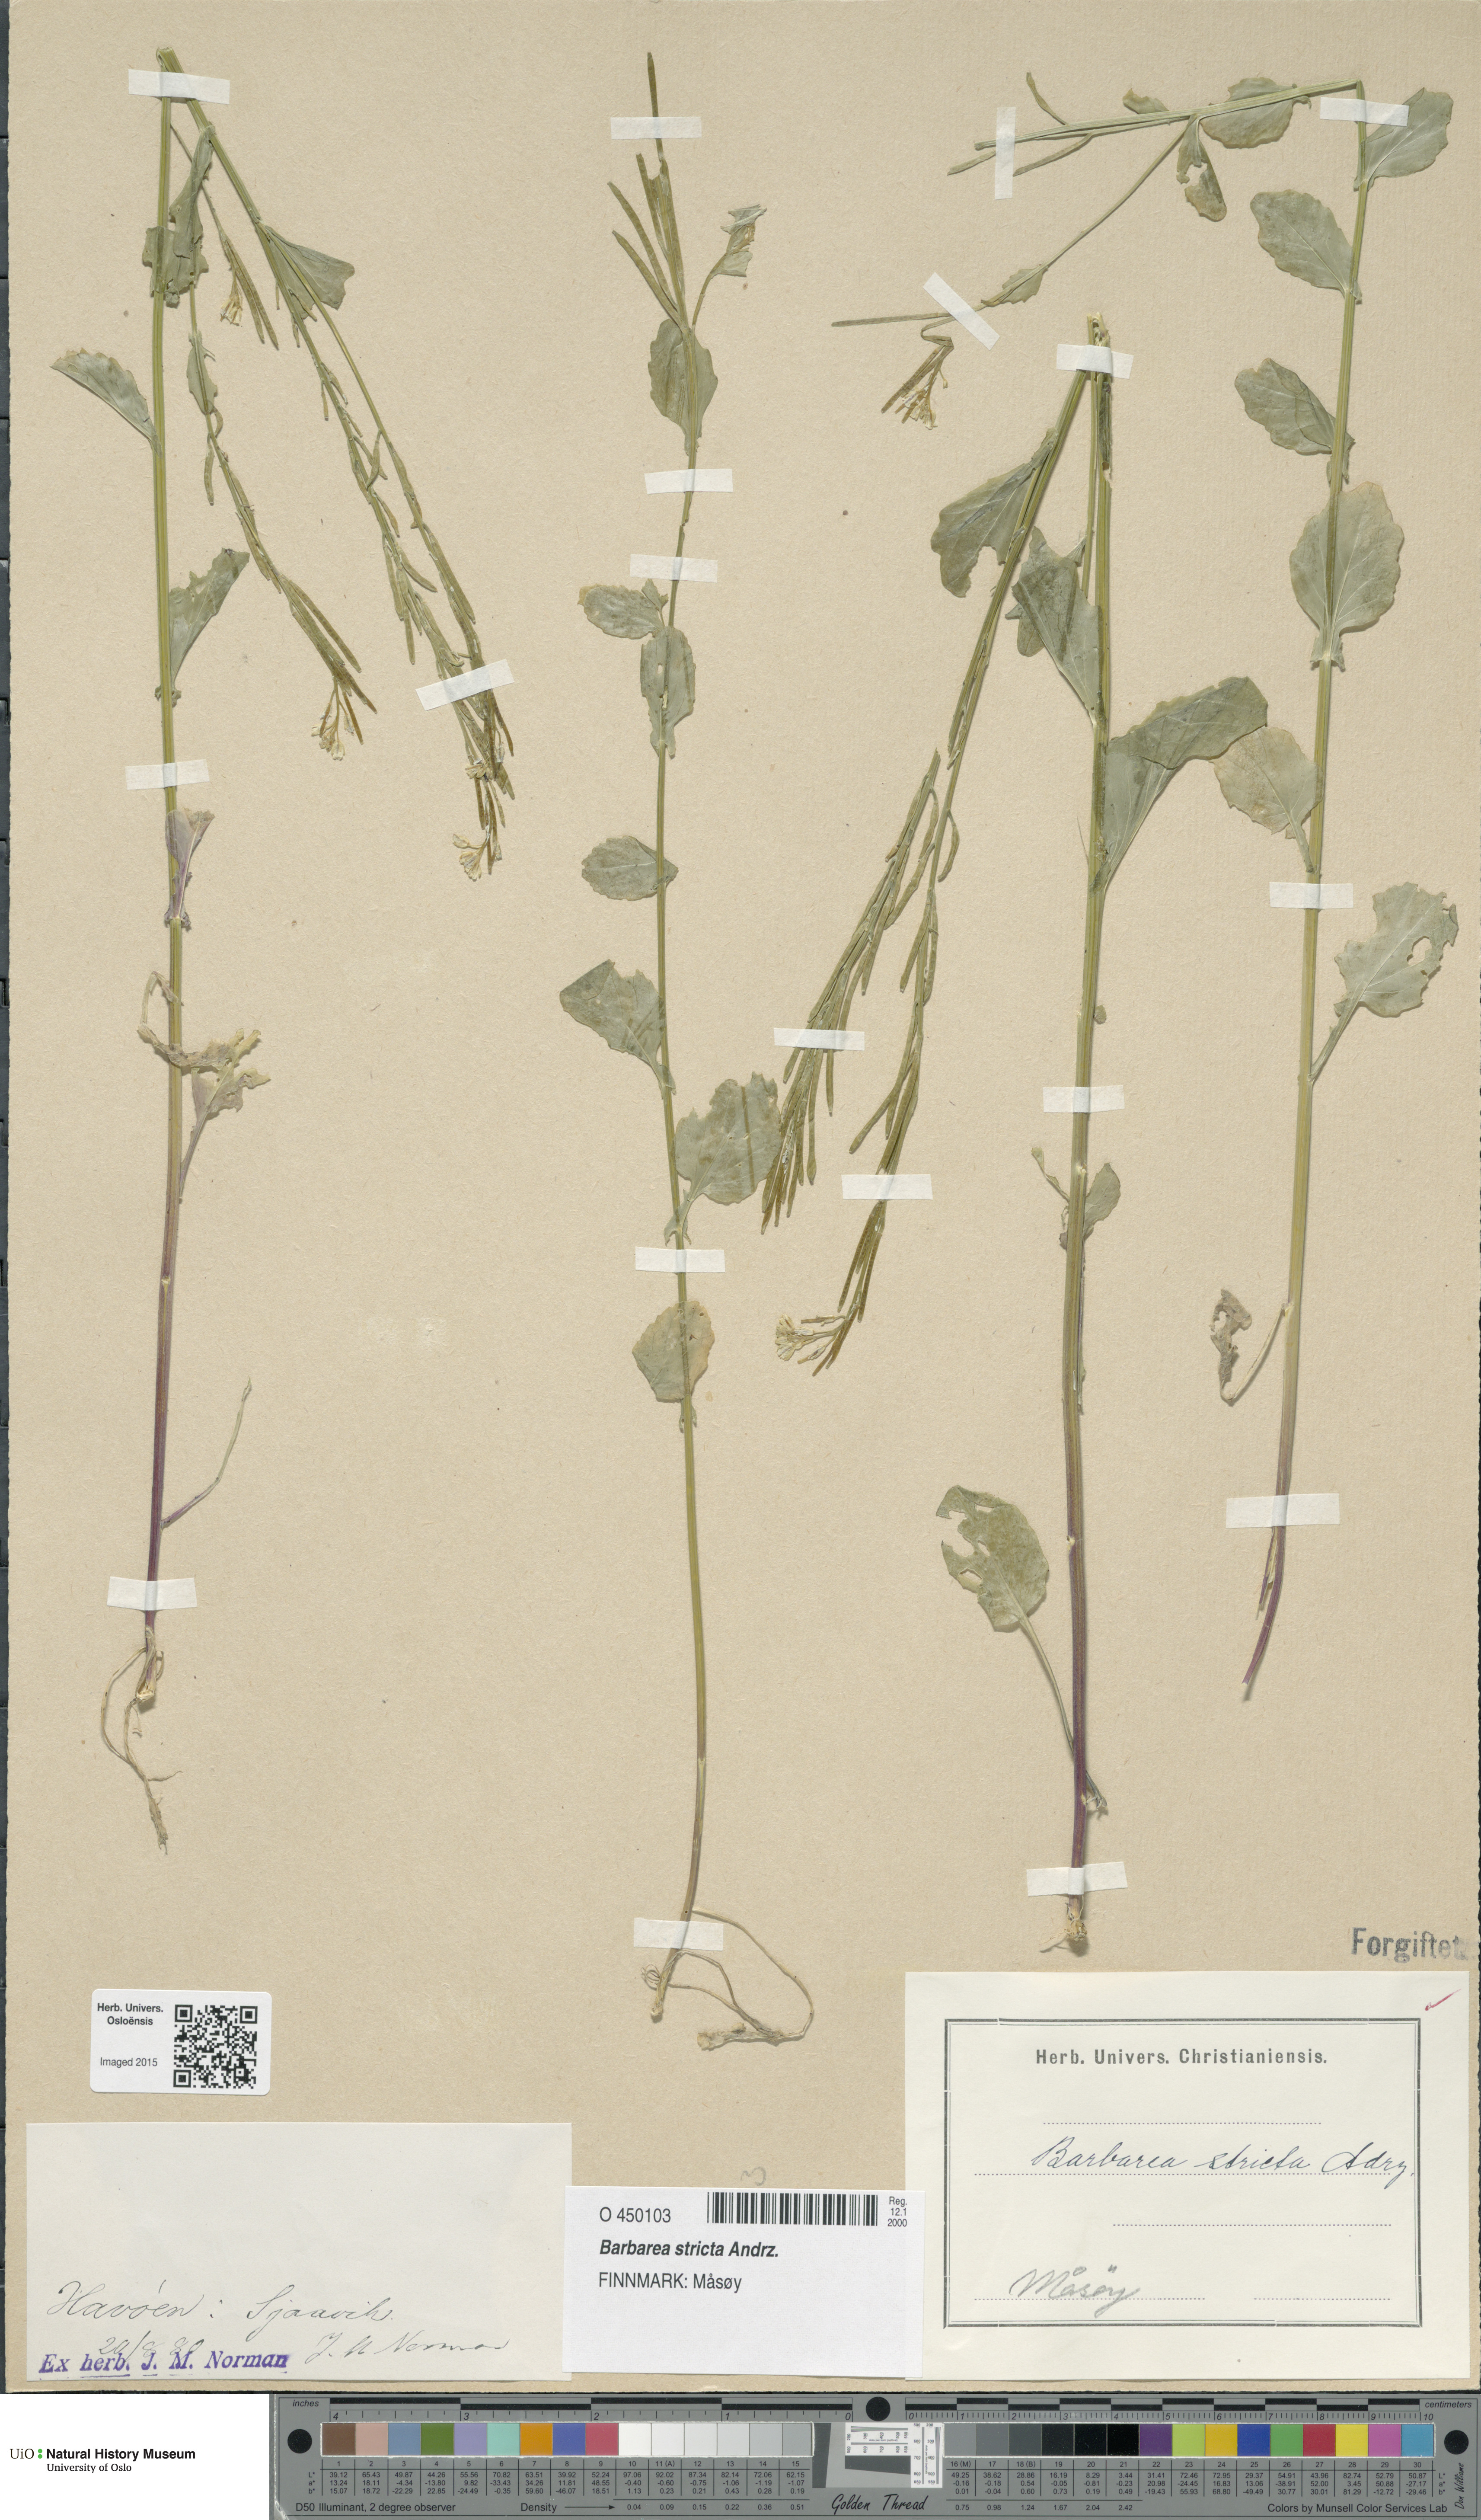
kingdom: Plantae
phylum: Tracheophyta
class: Magnoliopsida
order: Brassicales
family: Brassicaceae
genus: Barbarea
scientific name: Barbarea stricta
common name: Small-flowered winter-cress
